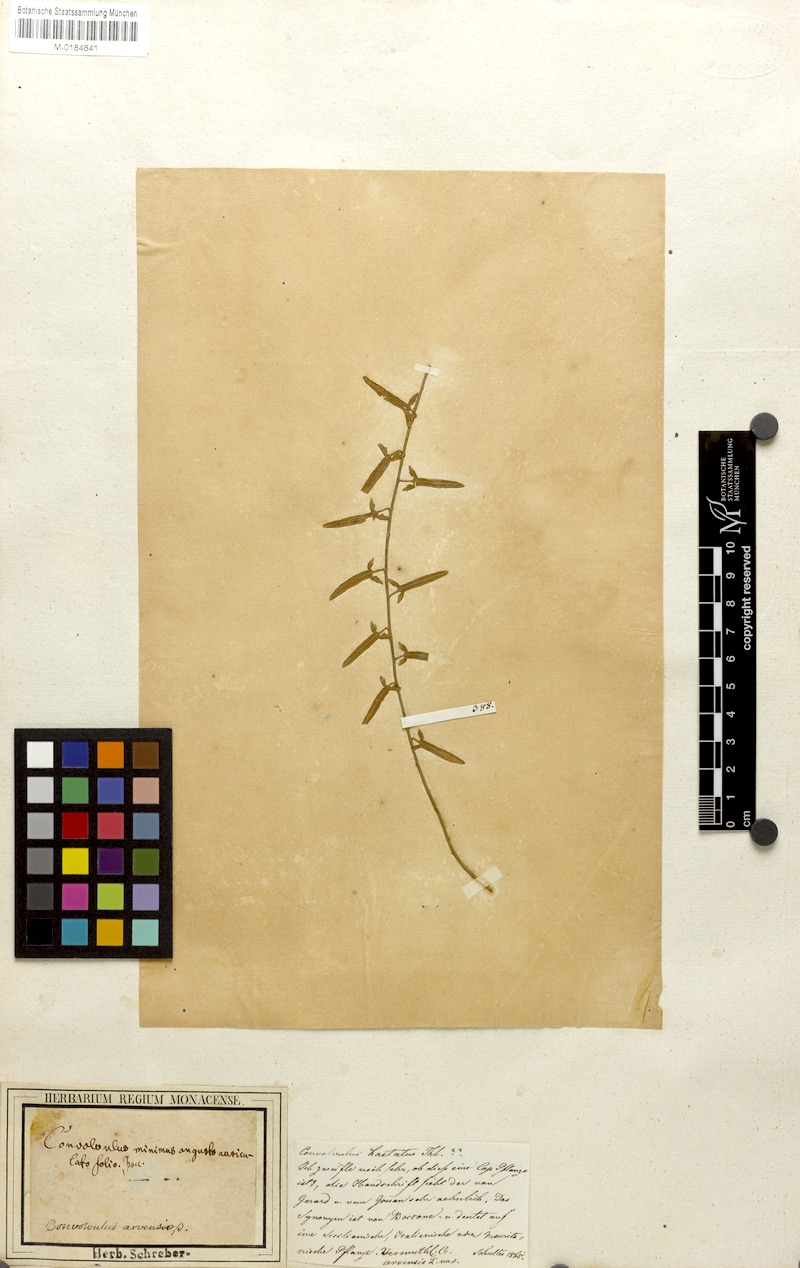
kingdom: Plantae
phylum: Tracheophyta
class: Magnoliopsida
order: Solanales
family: Convolvulaceae
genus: Convolvulus
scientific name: Convolvulus bidentatus
